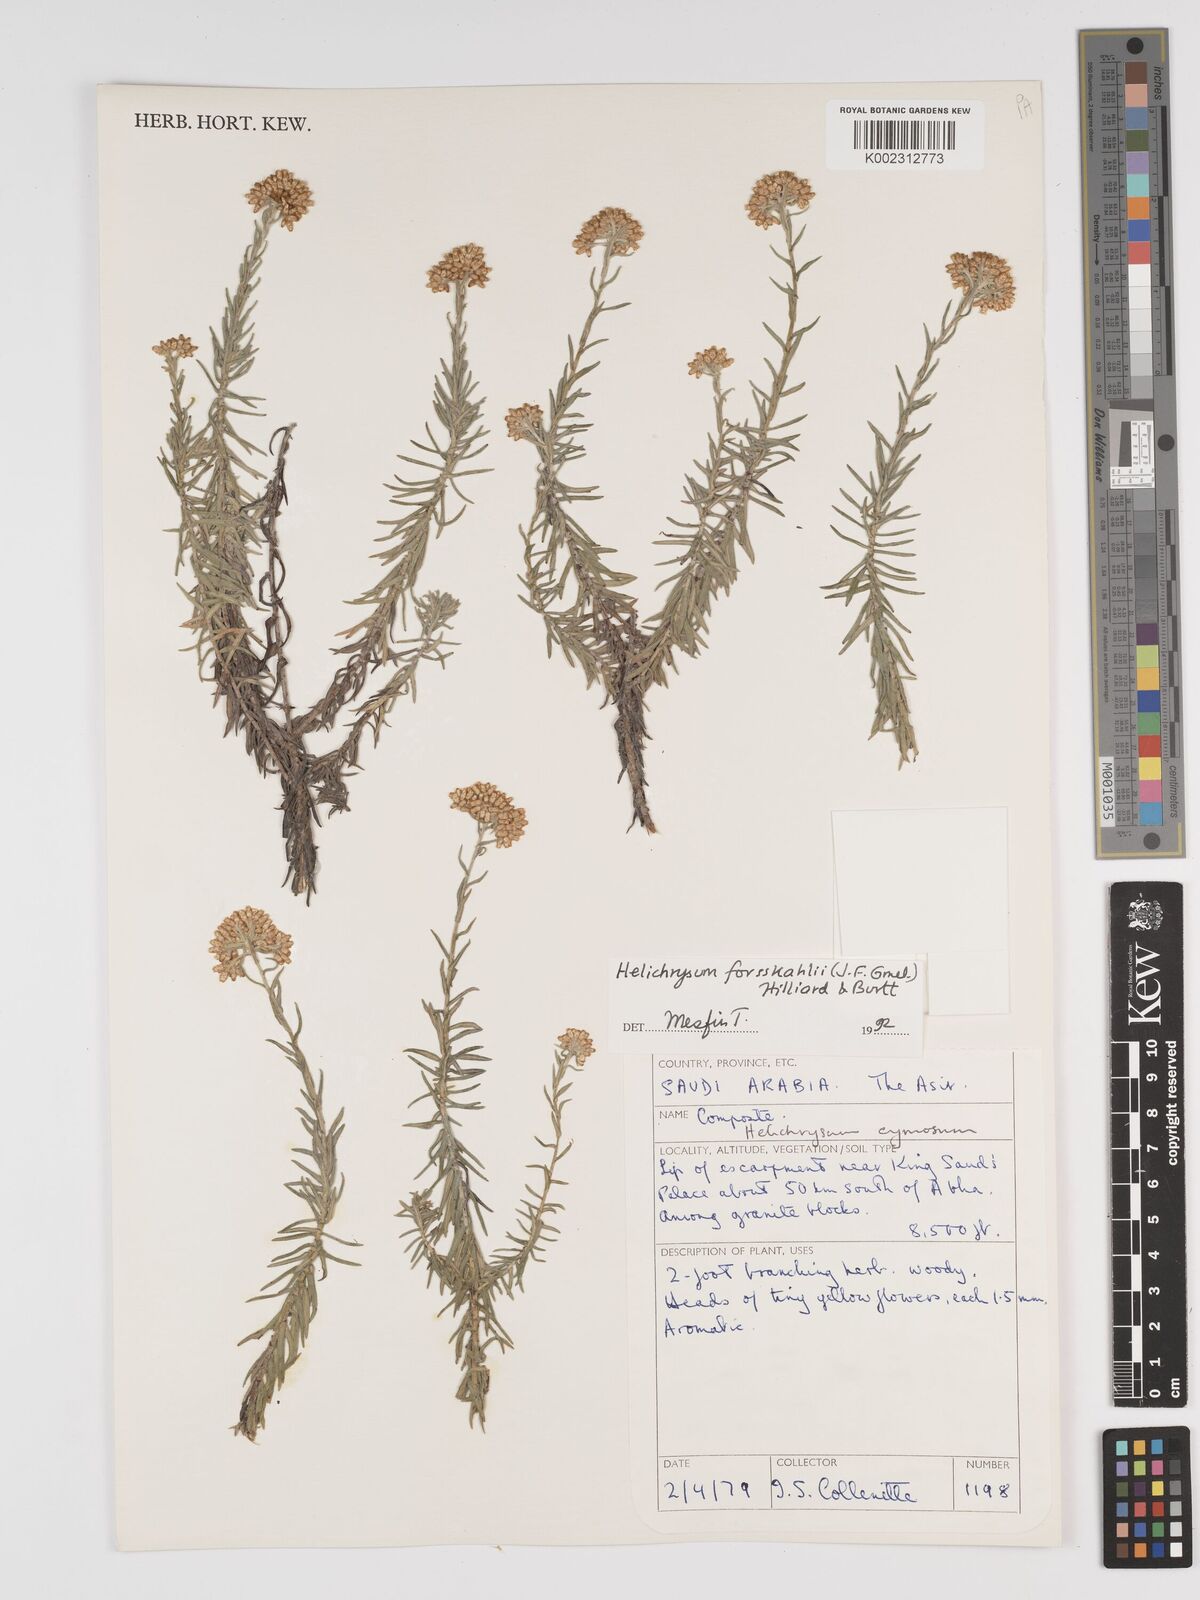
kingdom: Plantae
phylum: Tracheophyta
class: Magnoliopsida
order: Asterales
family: Asteraceae
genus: Helichrysum
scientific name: Helichrysum cymosum
